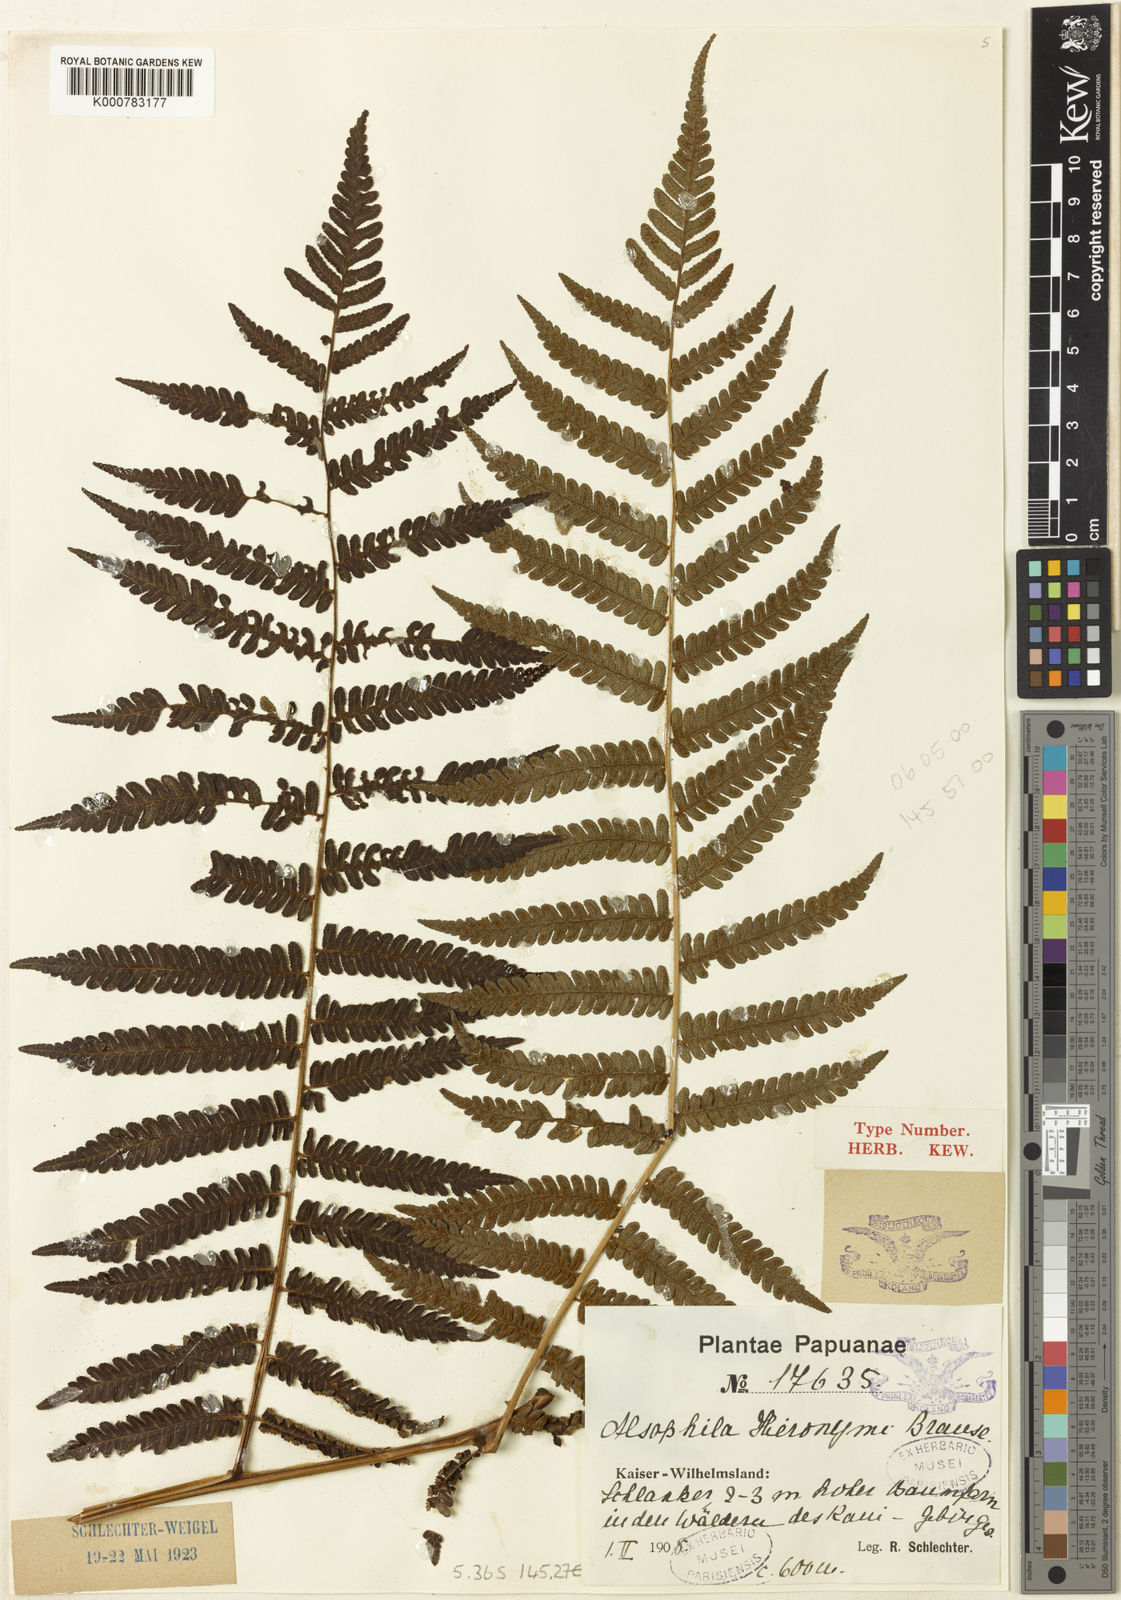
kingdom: Plantae
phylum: Tracheophyta
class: Polypodiopsida
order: Cyatheales
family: Cyatheaceae
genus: Alsophila
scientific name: Alsophila wengiensis
